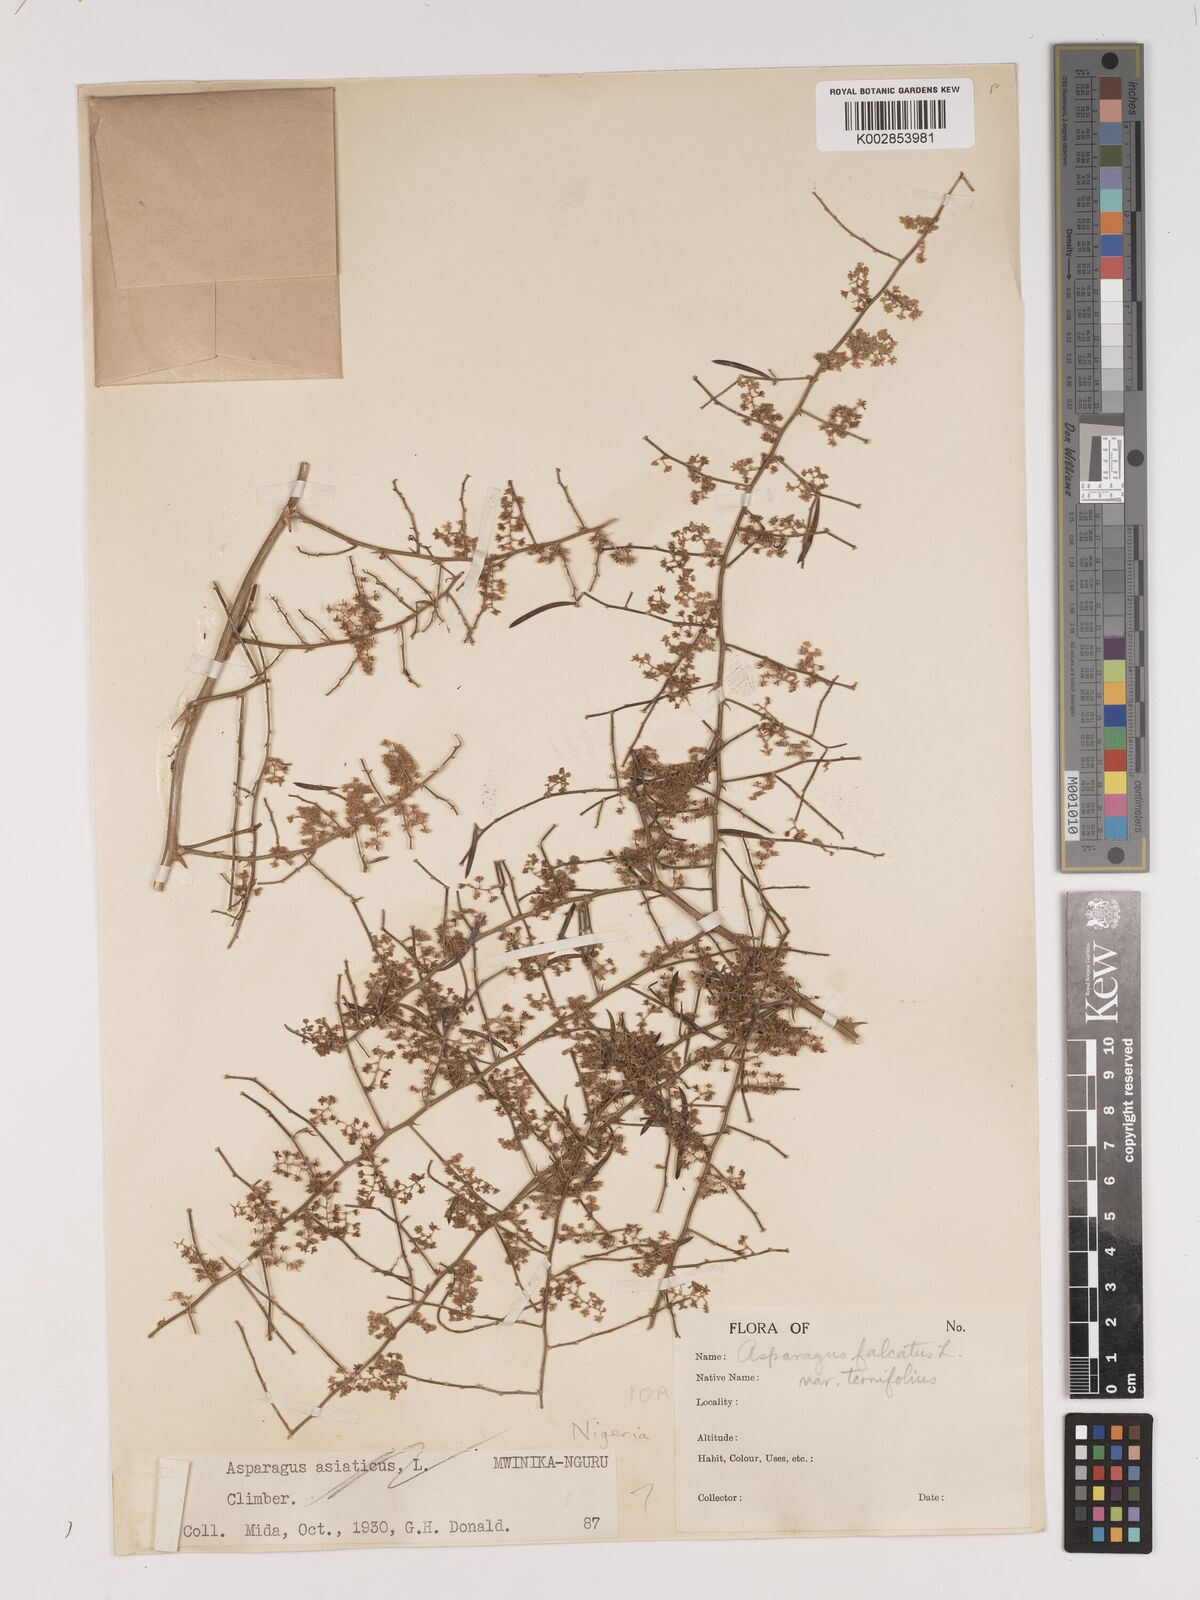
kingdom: Plantae
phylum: Tracheophyta
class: Liliopsida
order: Asparagales
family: Asparagaceae
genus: Asparagus
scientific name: Asparagus falcatus
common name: Asparagus
